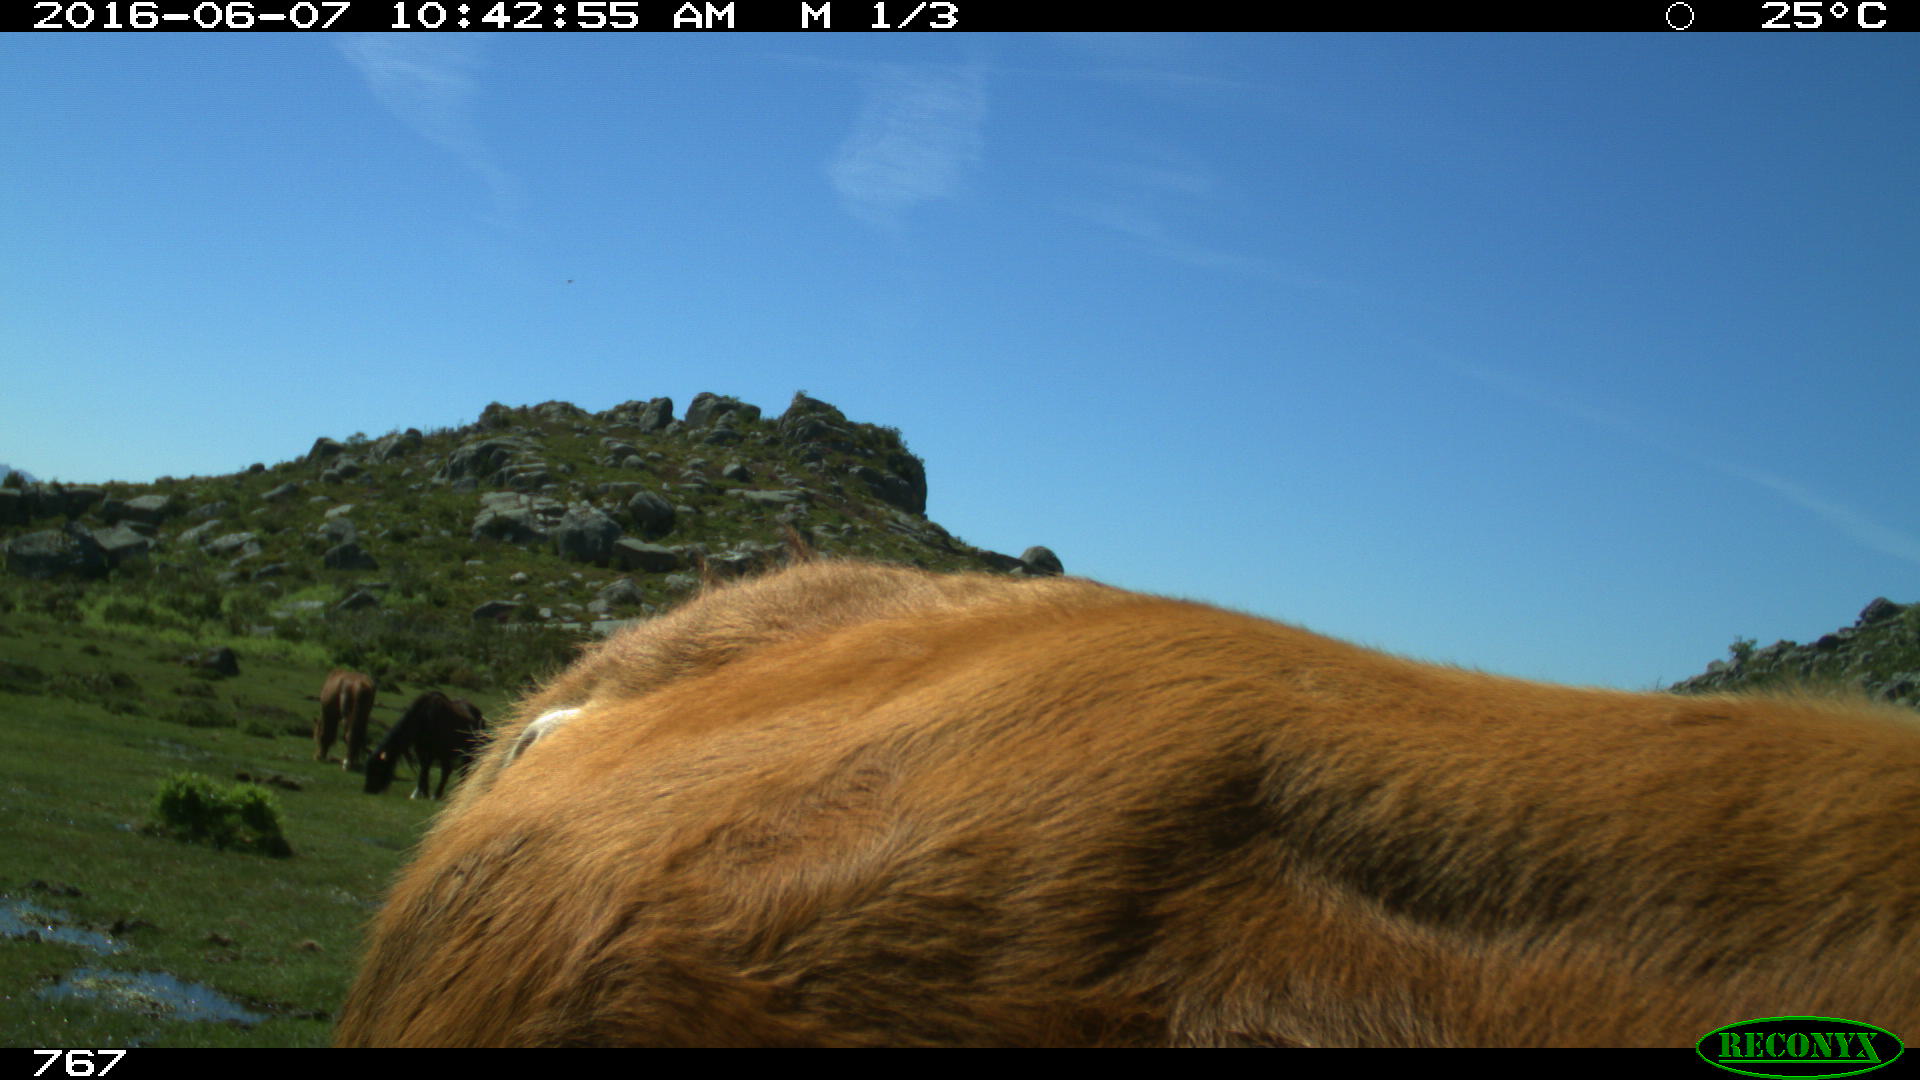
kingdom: Animalia
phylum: Chordata
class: Mammalia
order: Artiodactyla
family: Bovidae
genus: Bos
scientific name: Bos taurus
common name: Domesticated cattle
